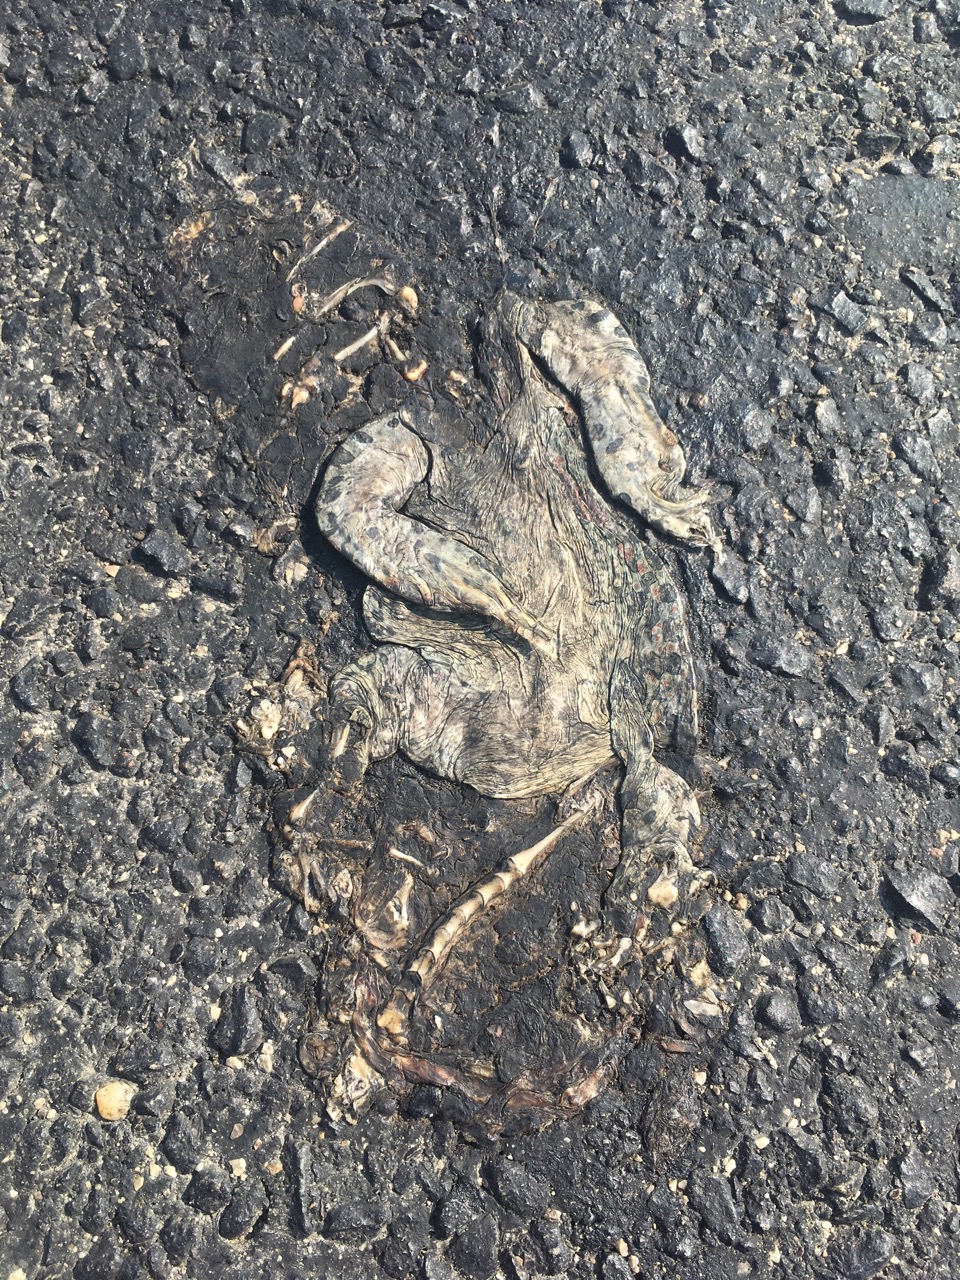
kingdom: Animalia
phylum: Chordata
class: Amphibia
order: Anura
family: Bufonidae
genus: Bufotes
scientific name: Bufotes viridis
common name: European green toad
